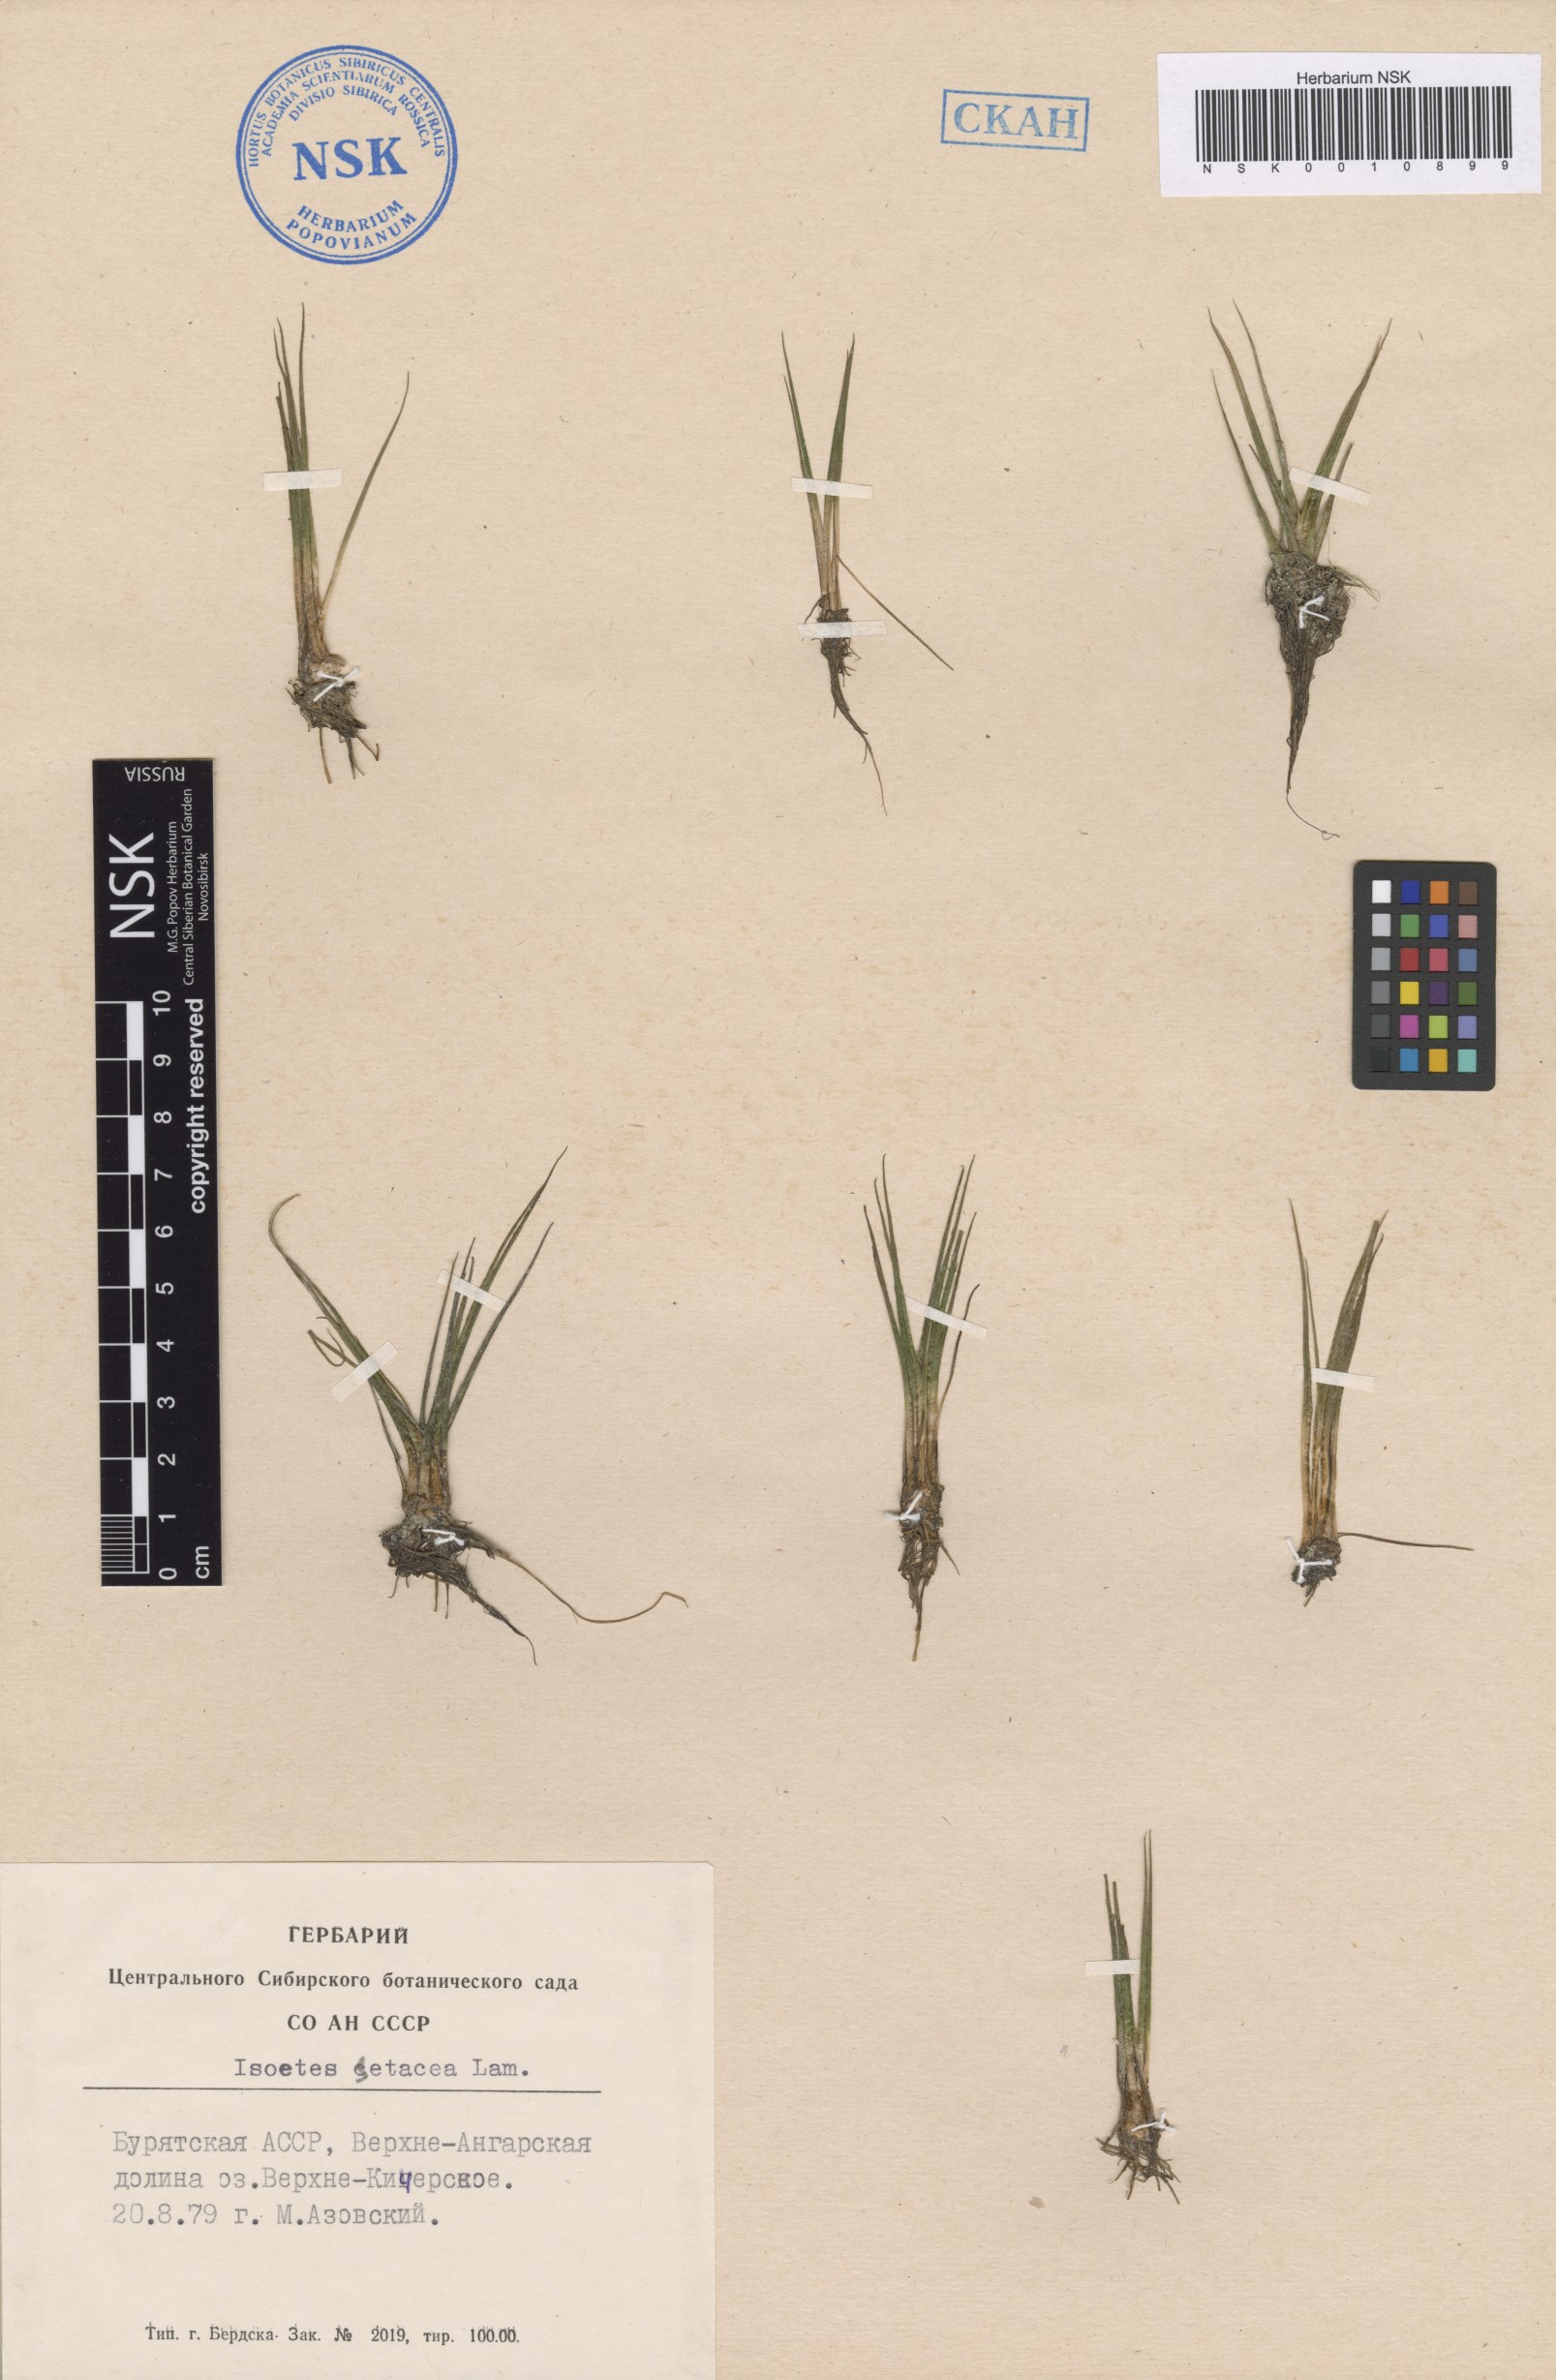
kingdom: Plantae
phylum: Tracheophyta
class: Lycopodiopsida
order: Isoetales
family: Isoetaceae
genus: Isoetes
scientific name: Isoetes lacustris
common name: Common quillwort
